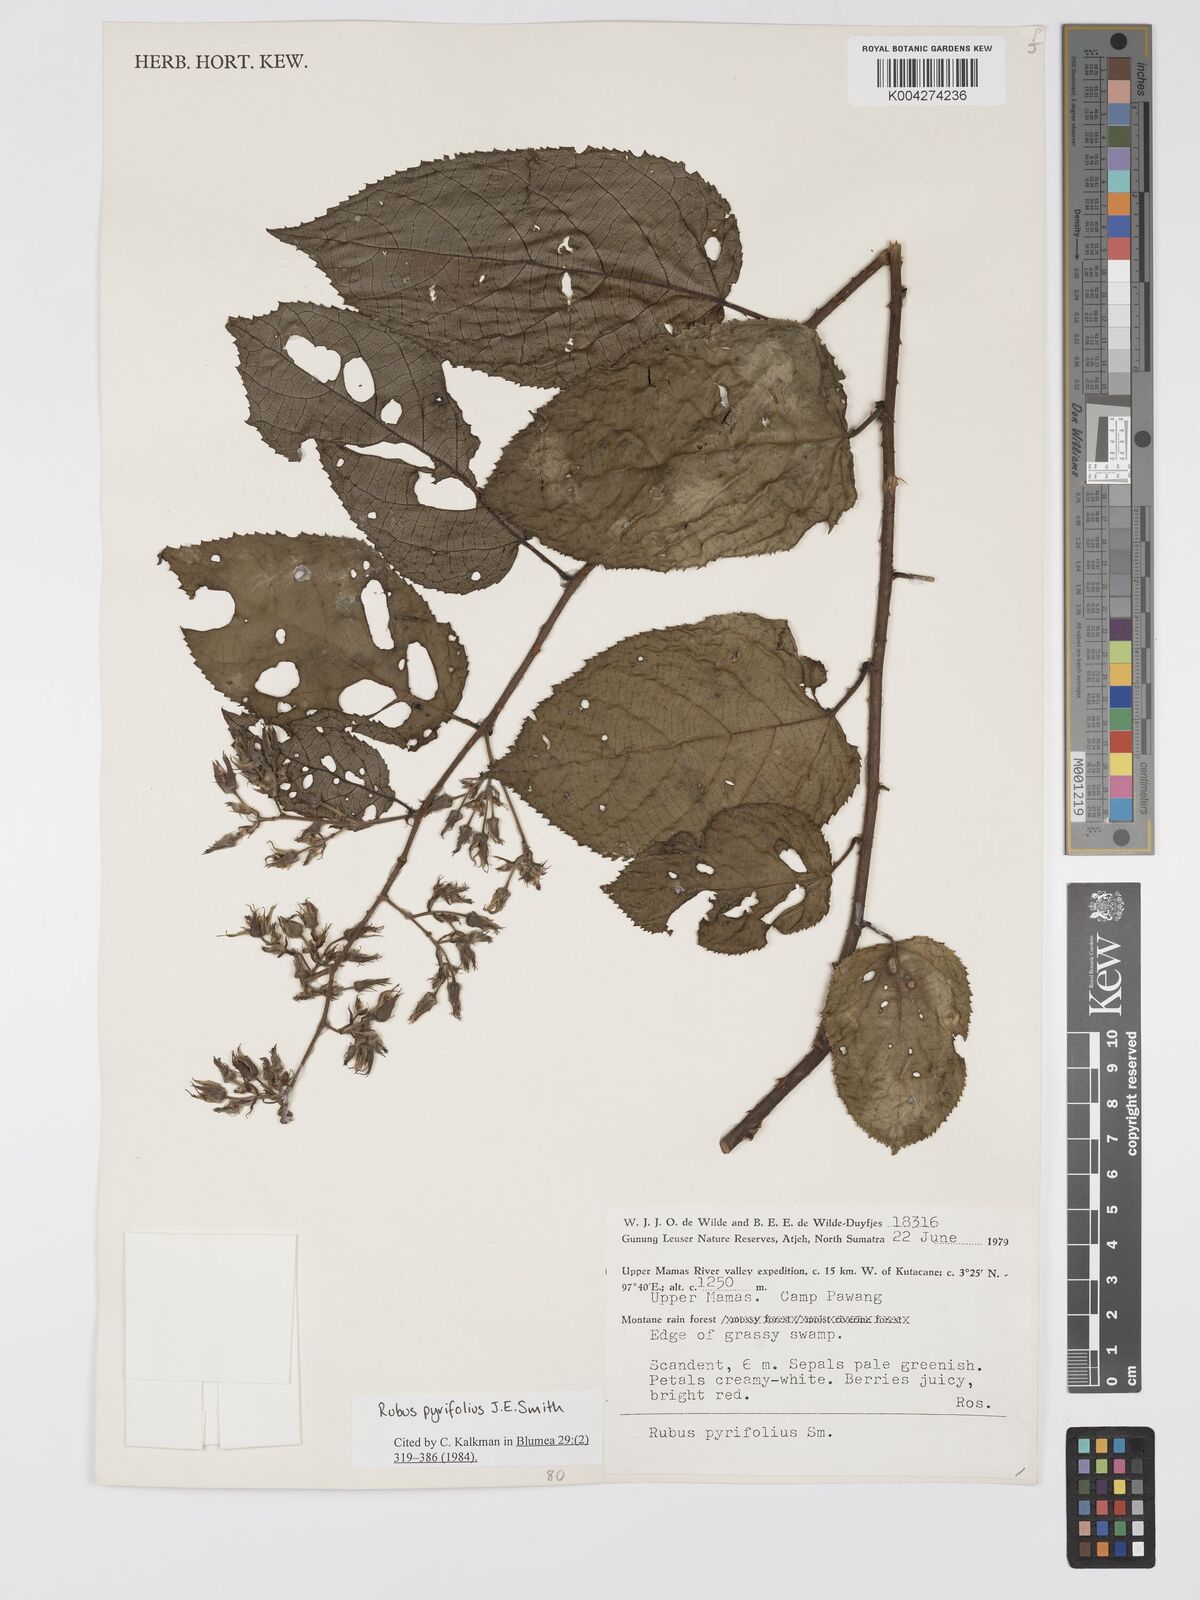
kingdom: Plantae
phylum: Tracheophyta
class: Magnoliopsida
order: Rosales
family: Rosaceae
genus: Rubus
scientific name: Rubus pirifolius
